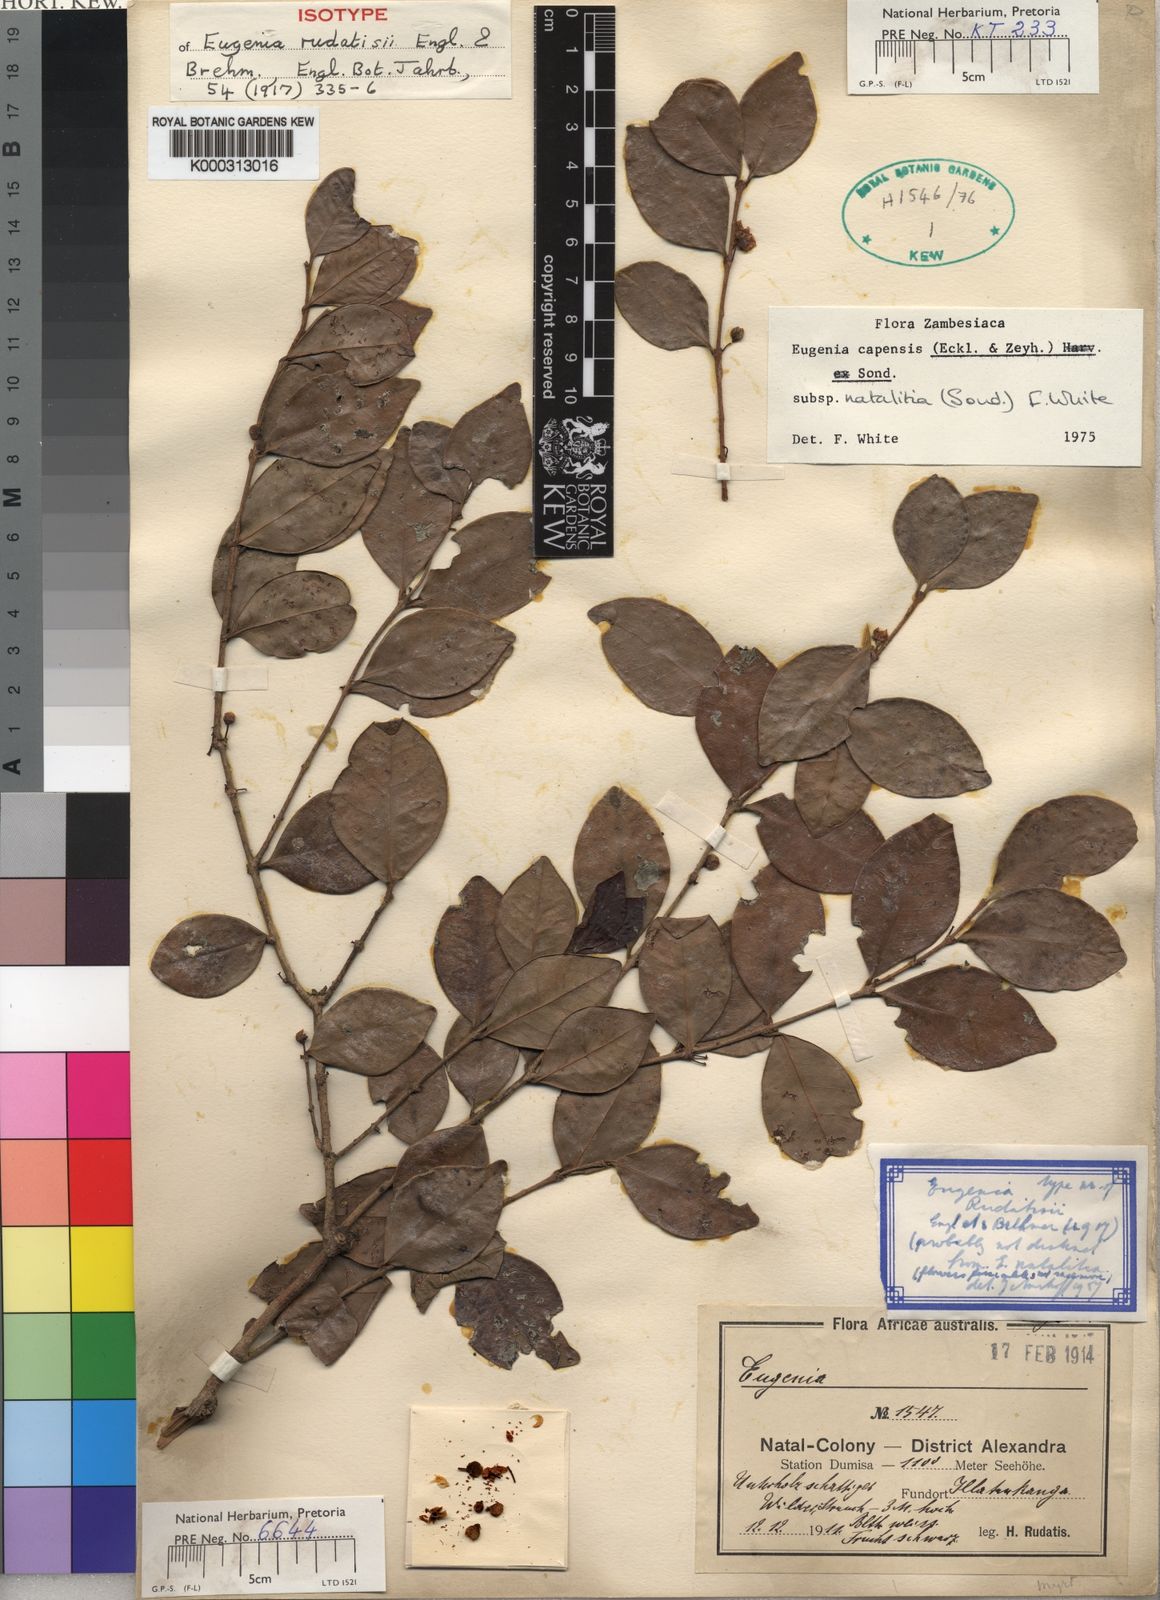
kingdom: Plantae
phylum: Tracheophyta
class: Magnoliopsida
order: Myrtales
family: Myrtaceae
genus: Eugenia
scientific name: Eugenia natalitia
